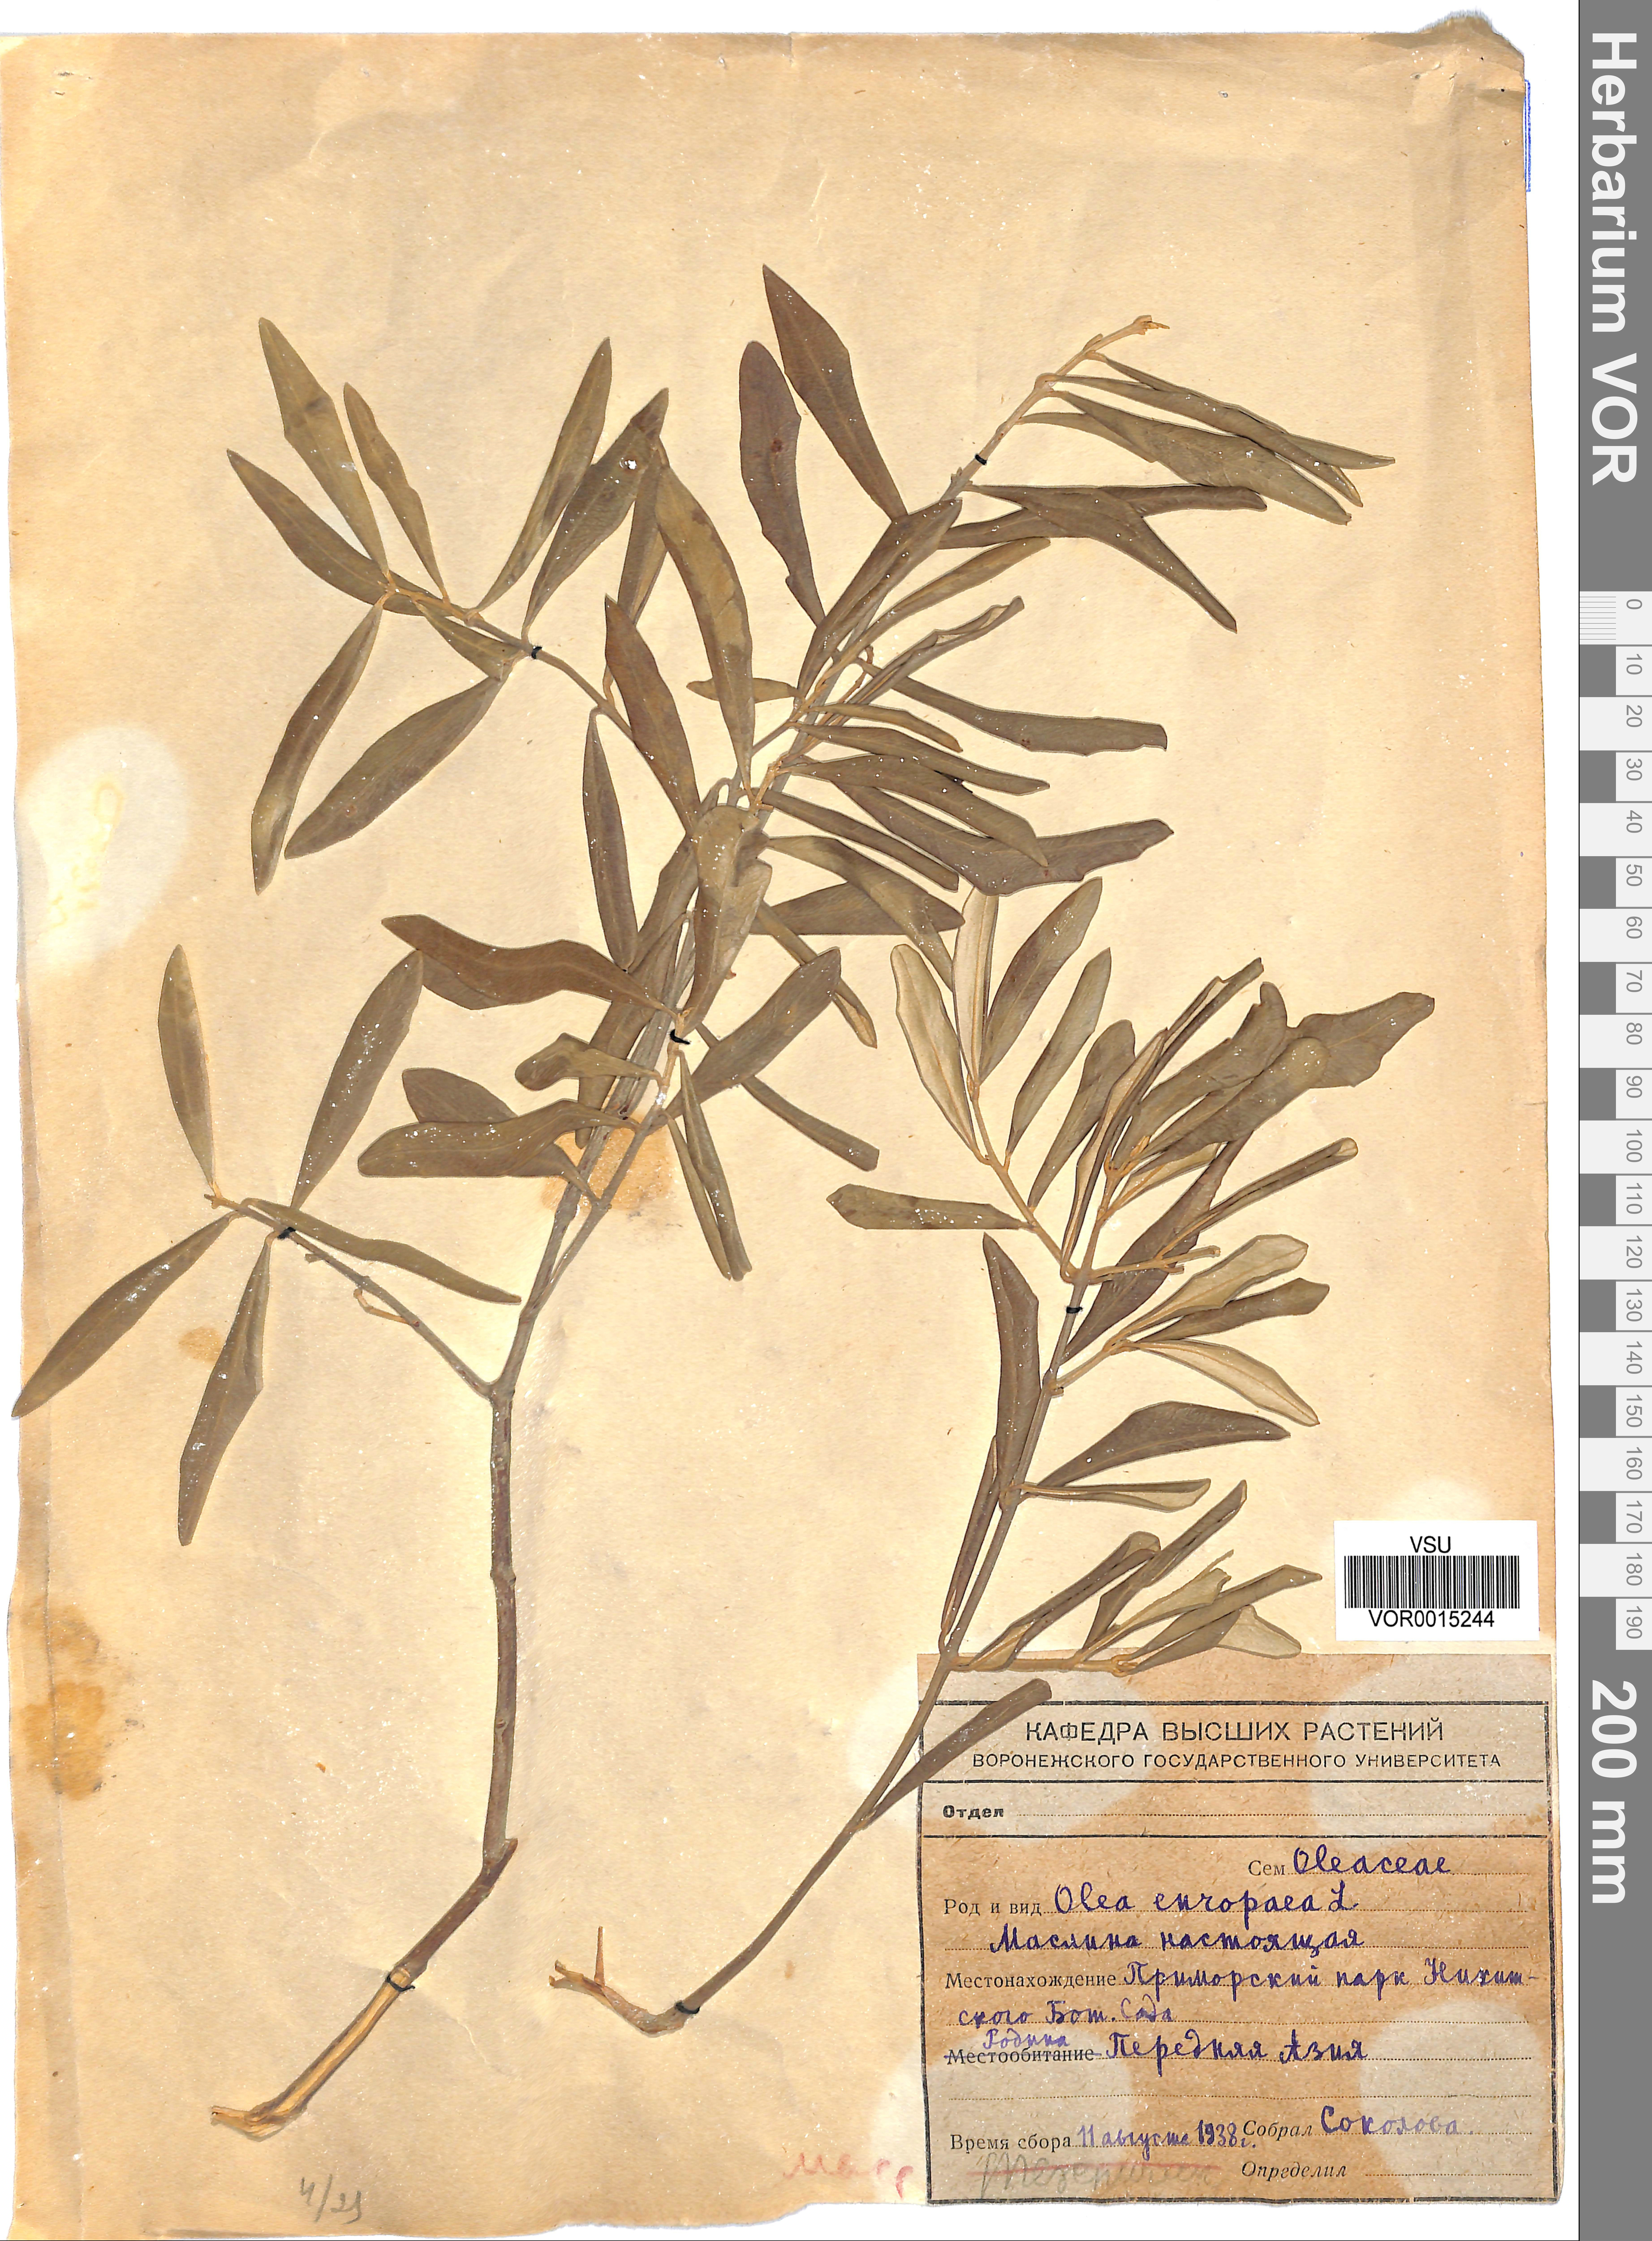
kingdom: Plantae
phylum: Tracheophyta
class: Magnoliopsida
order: Lamiales
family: Oleaceae
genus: Olea
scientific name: Olea europaea
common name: Olive
